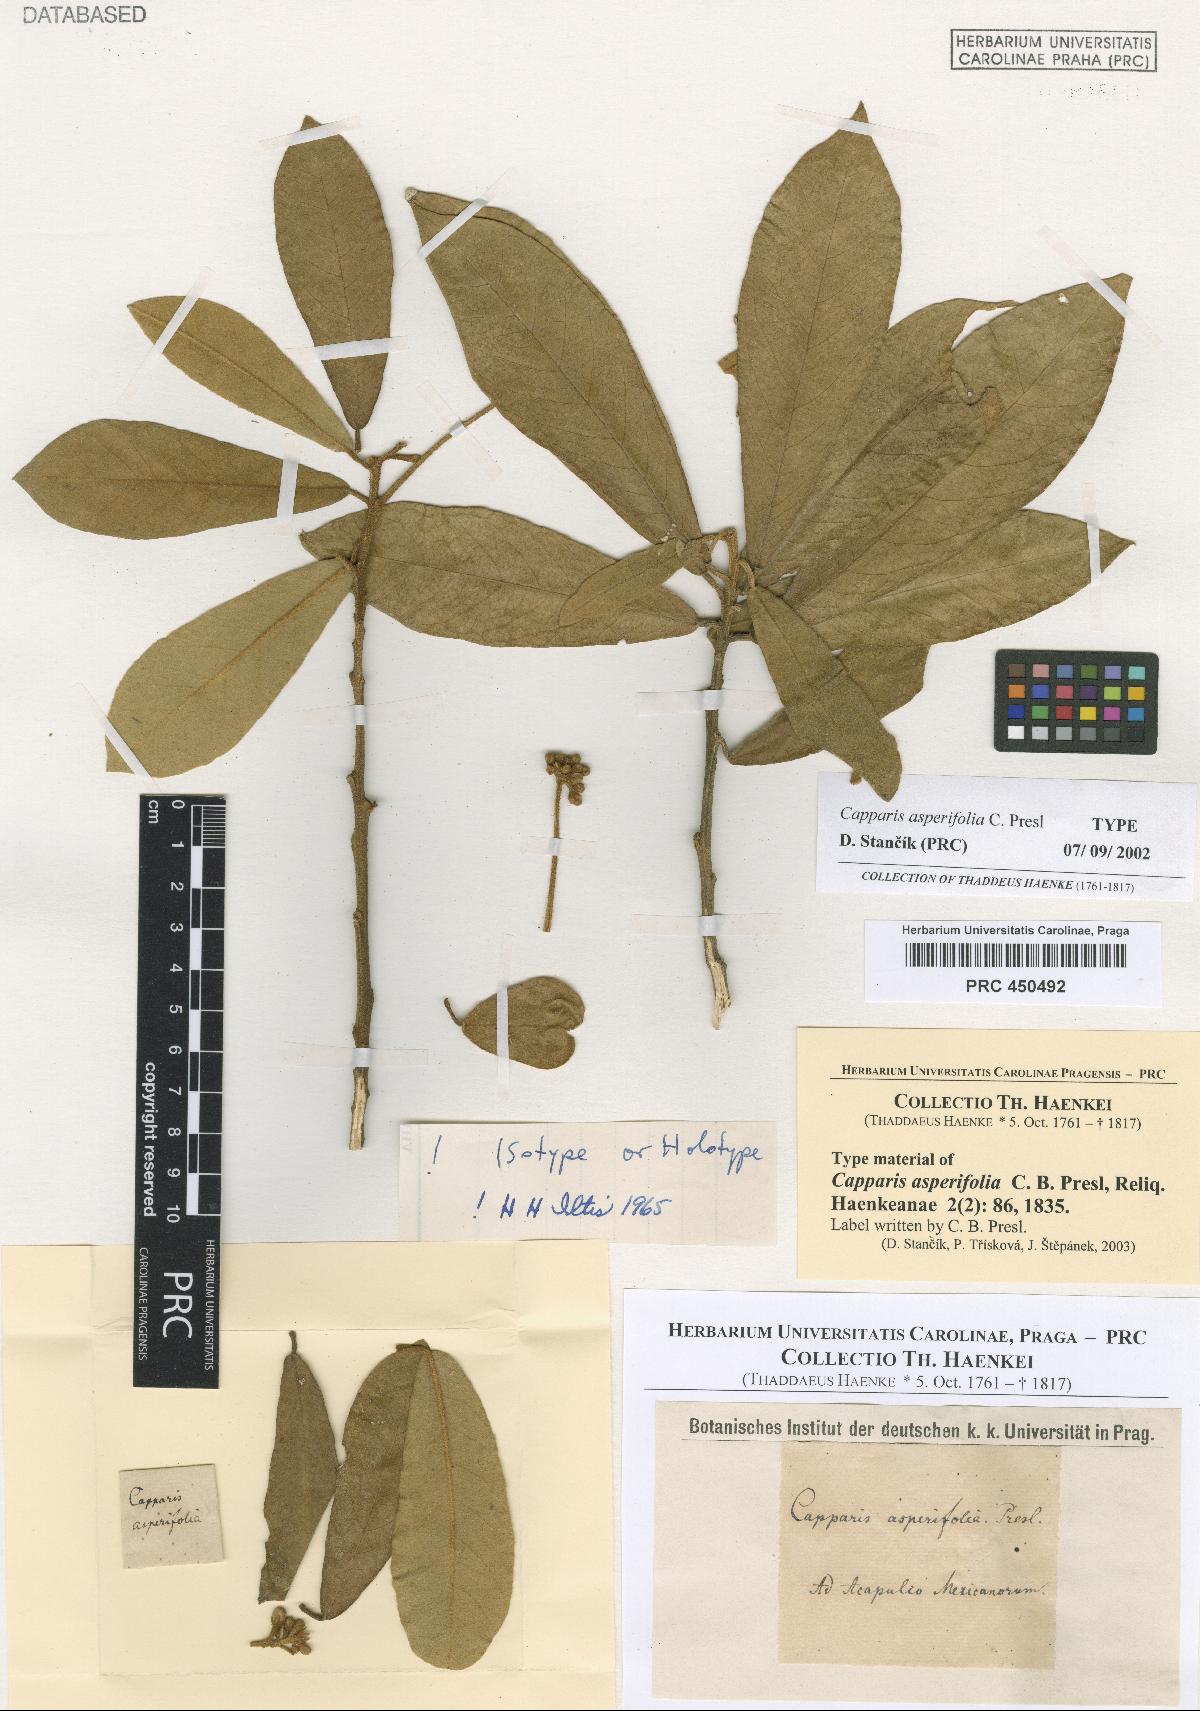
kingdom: Plantae
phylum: Tracheophyta
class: Magnoliopsida
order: Brassicales
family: Capparaceae
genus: Quadrella
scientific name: Quadrella asperifolia
